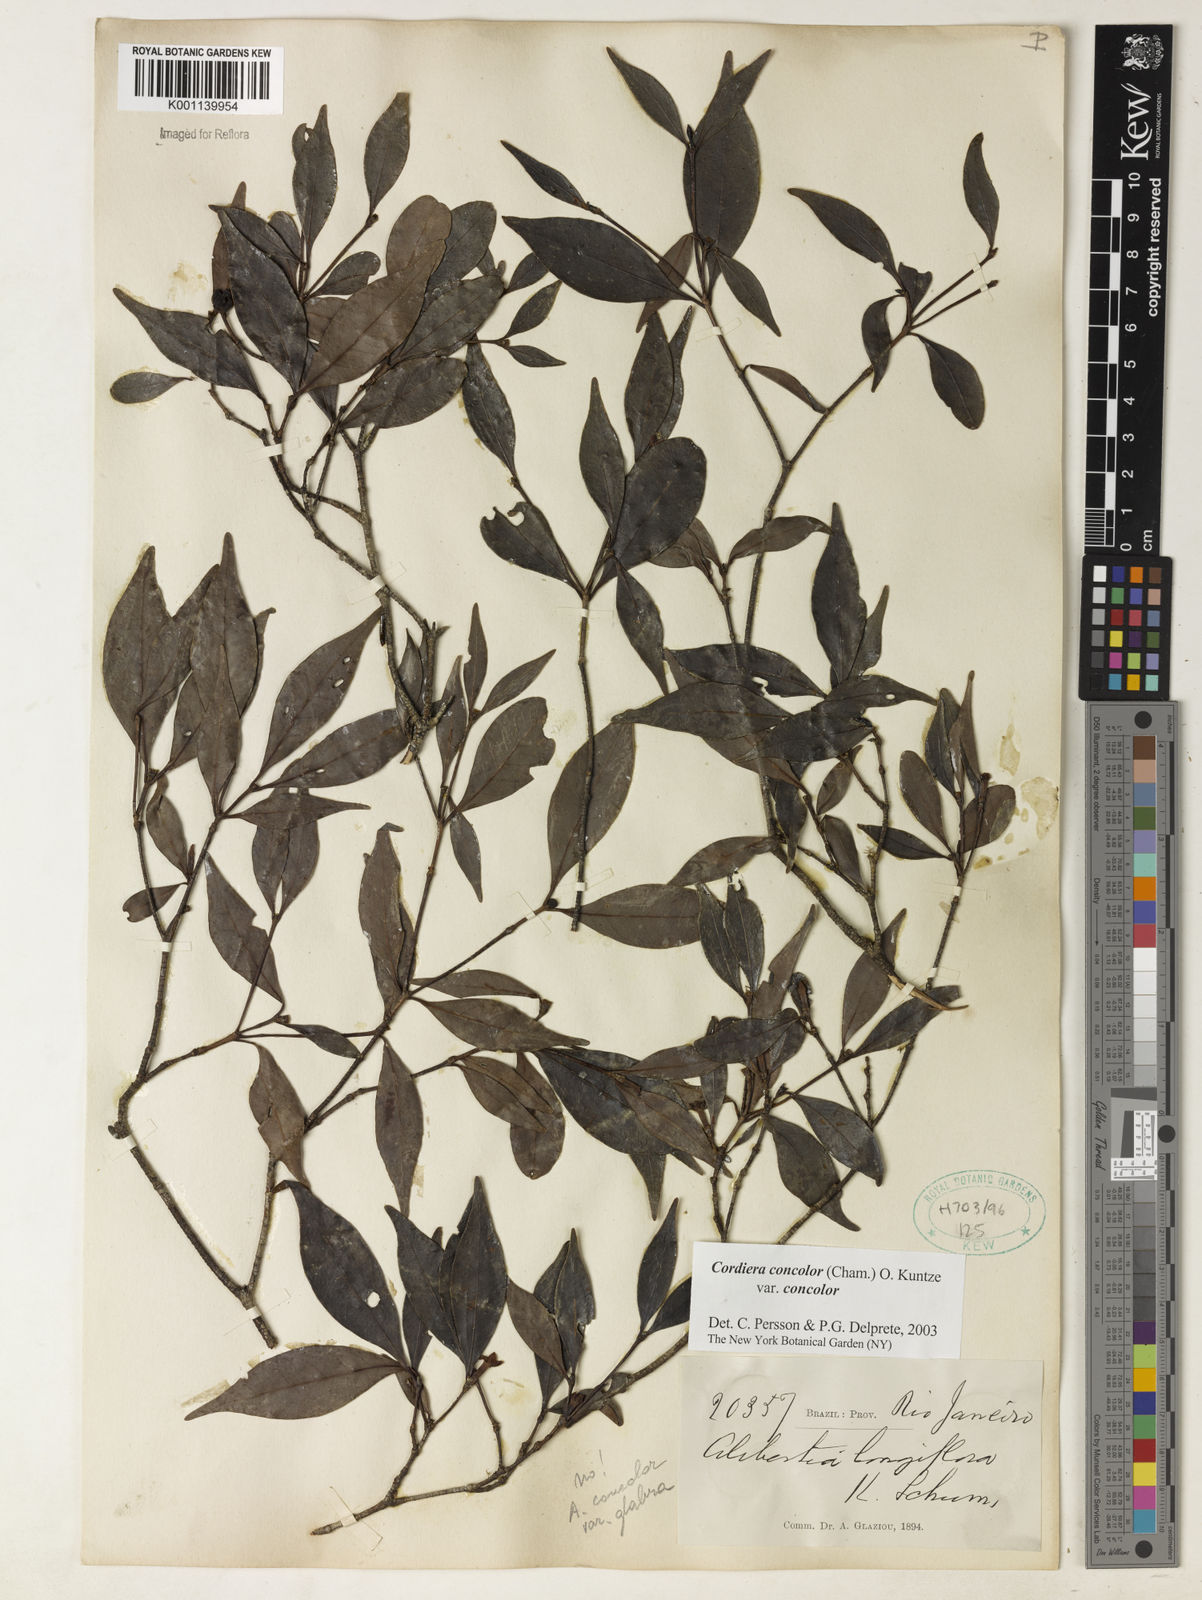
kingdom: Plantae
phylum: Tracheophyta
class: Magnoliopsida
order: Gentianales
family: Rubiaceae
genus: Cordiera
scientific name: Cordiera concolor
